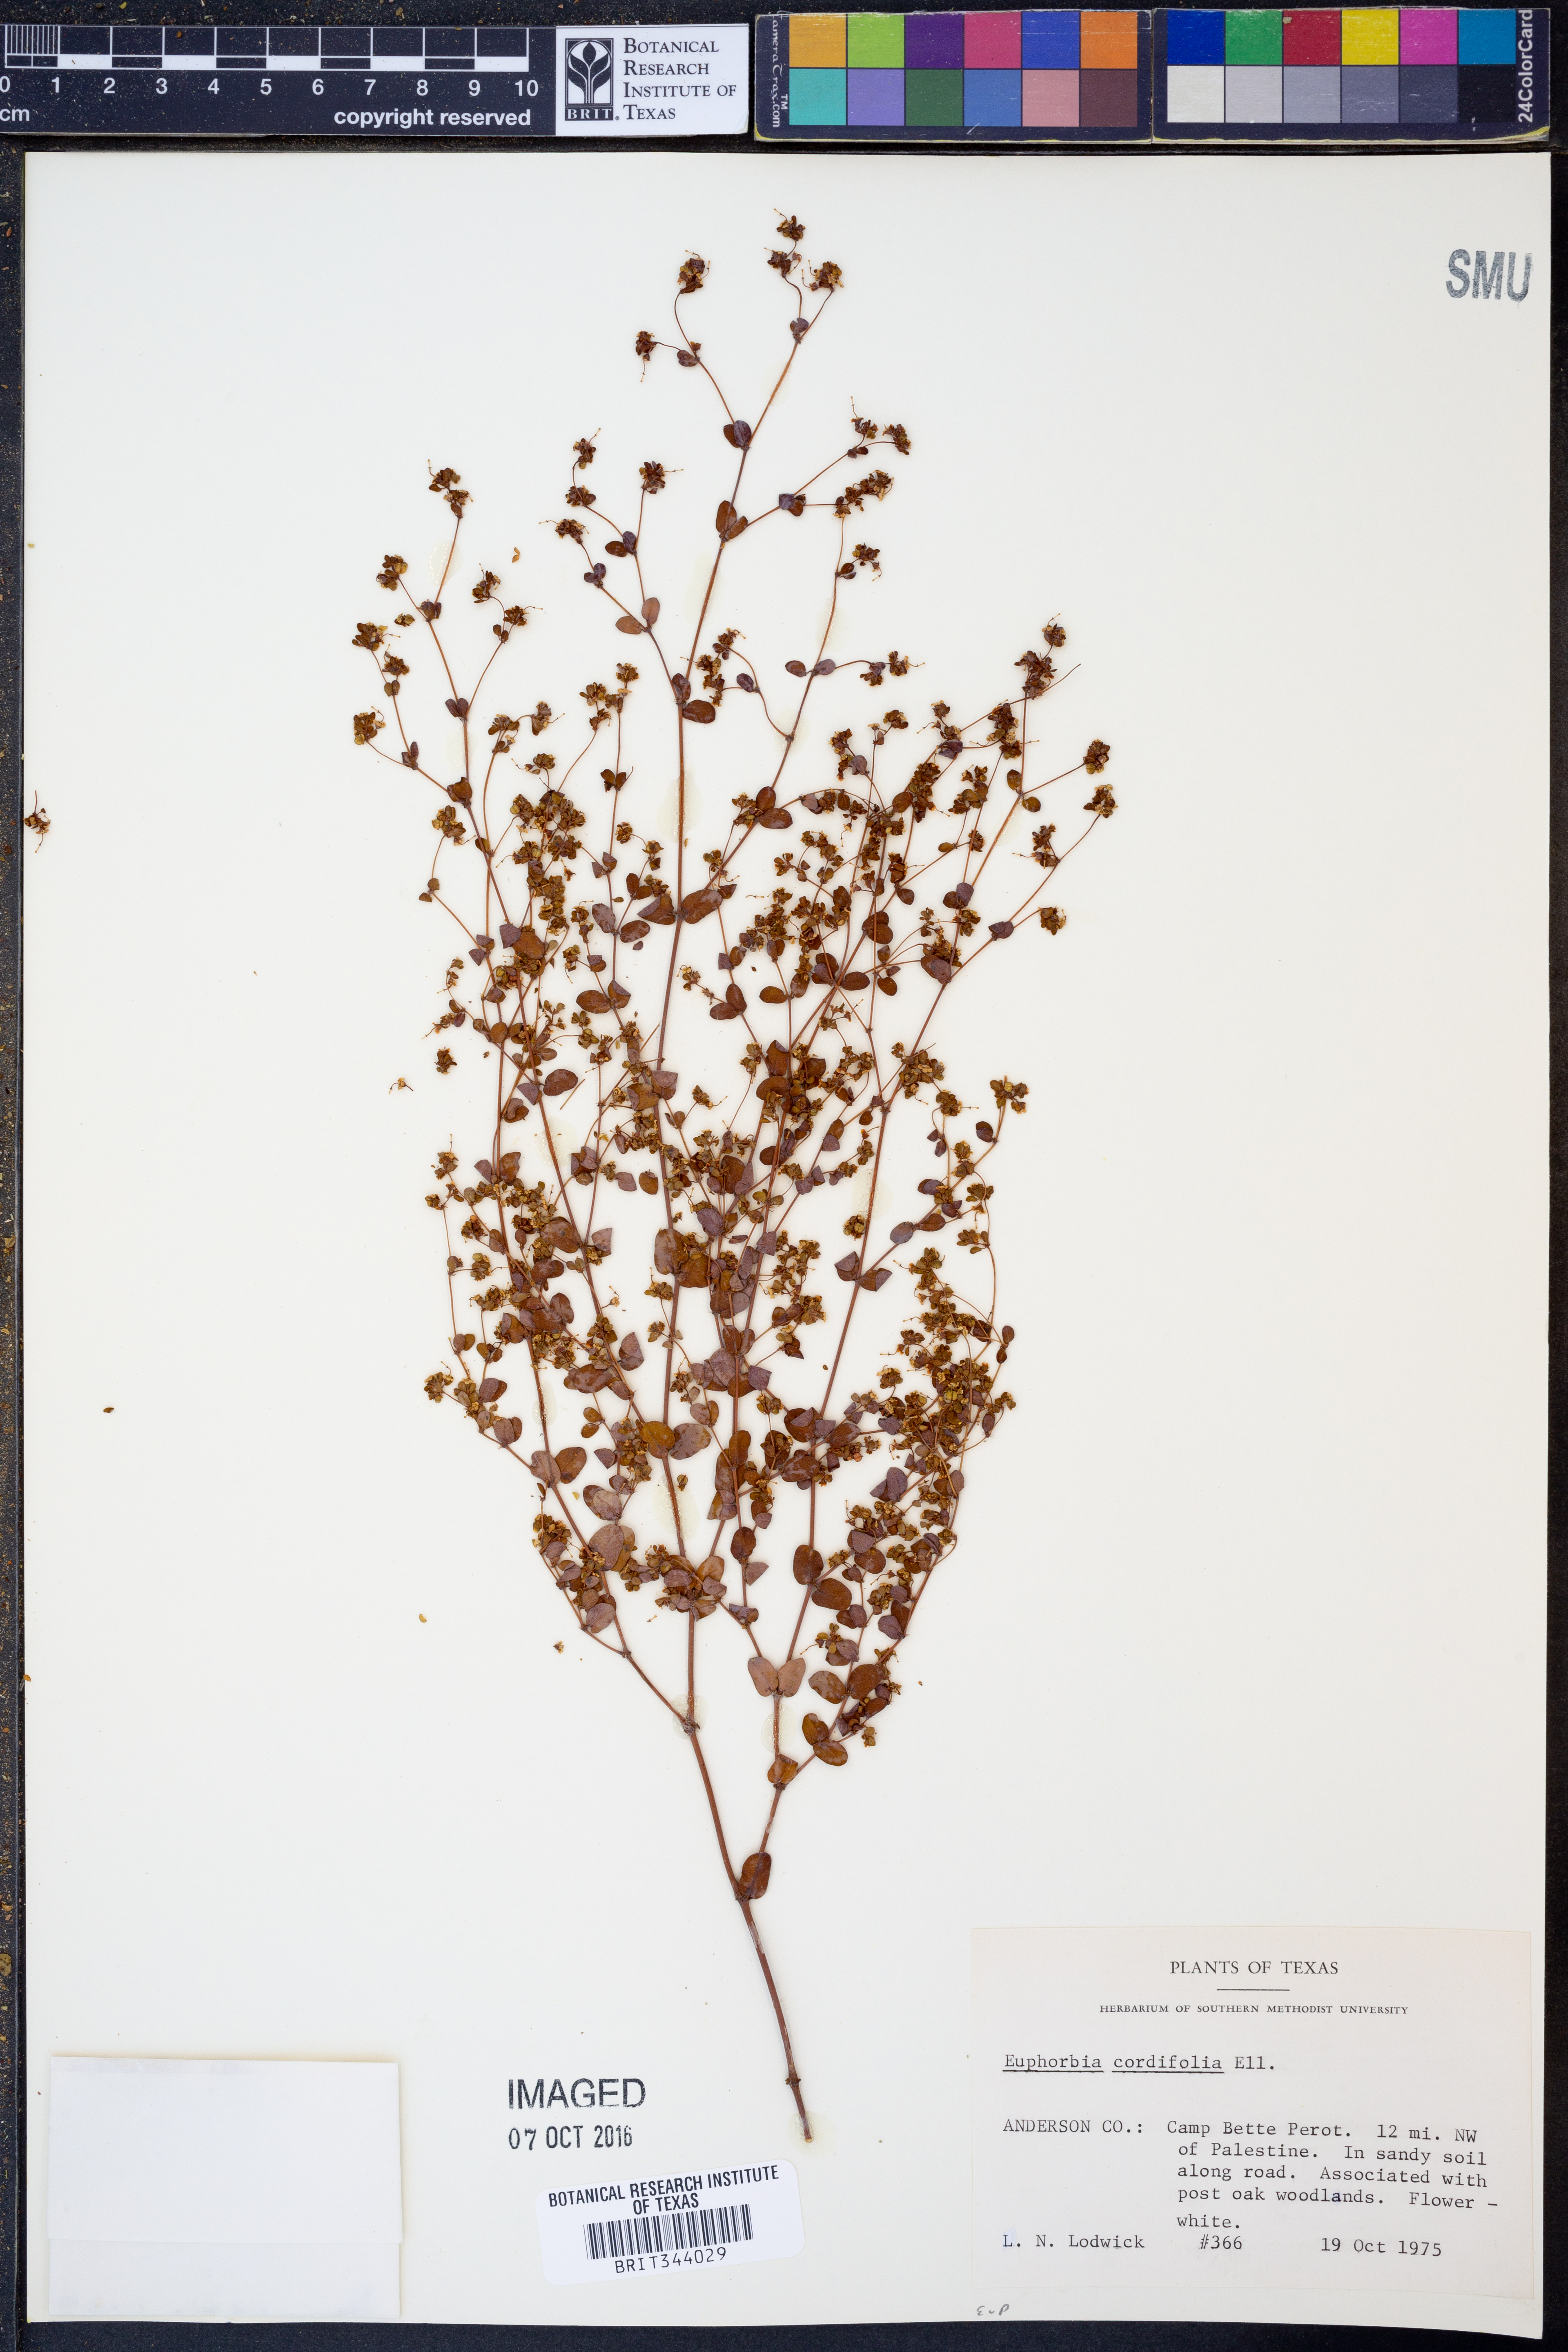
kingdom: Plantae
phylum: Tracheophyta
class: Magnoliopsida
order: Malpighiales
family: Euphorbiaceae
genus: Euphorbia
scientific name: Euphorbia cordifolia
